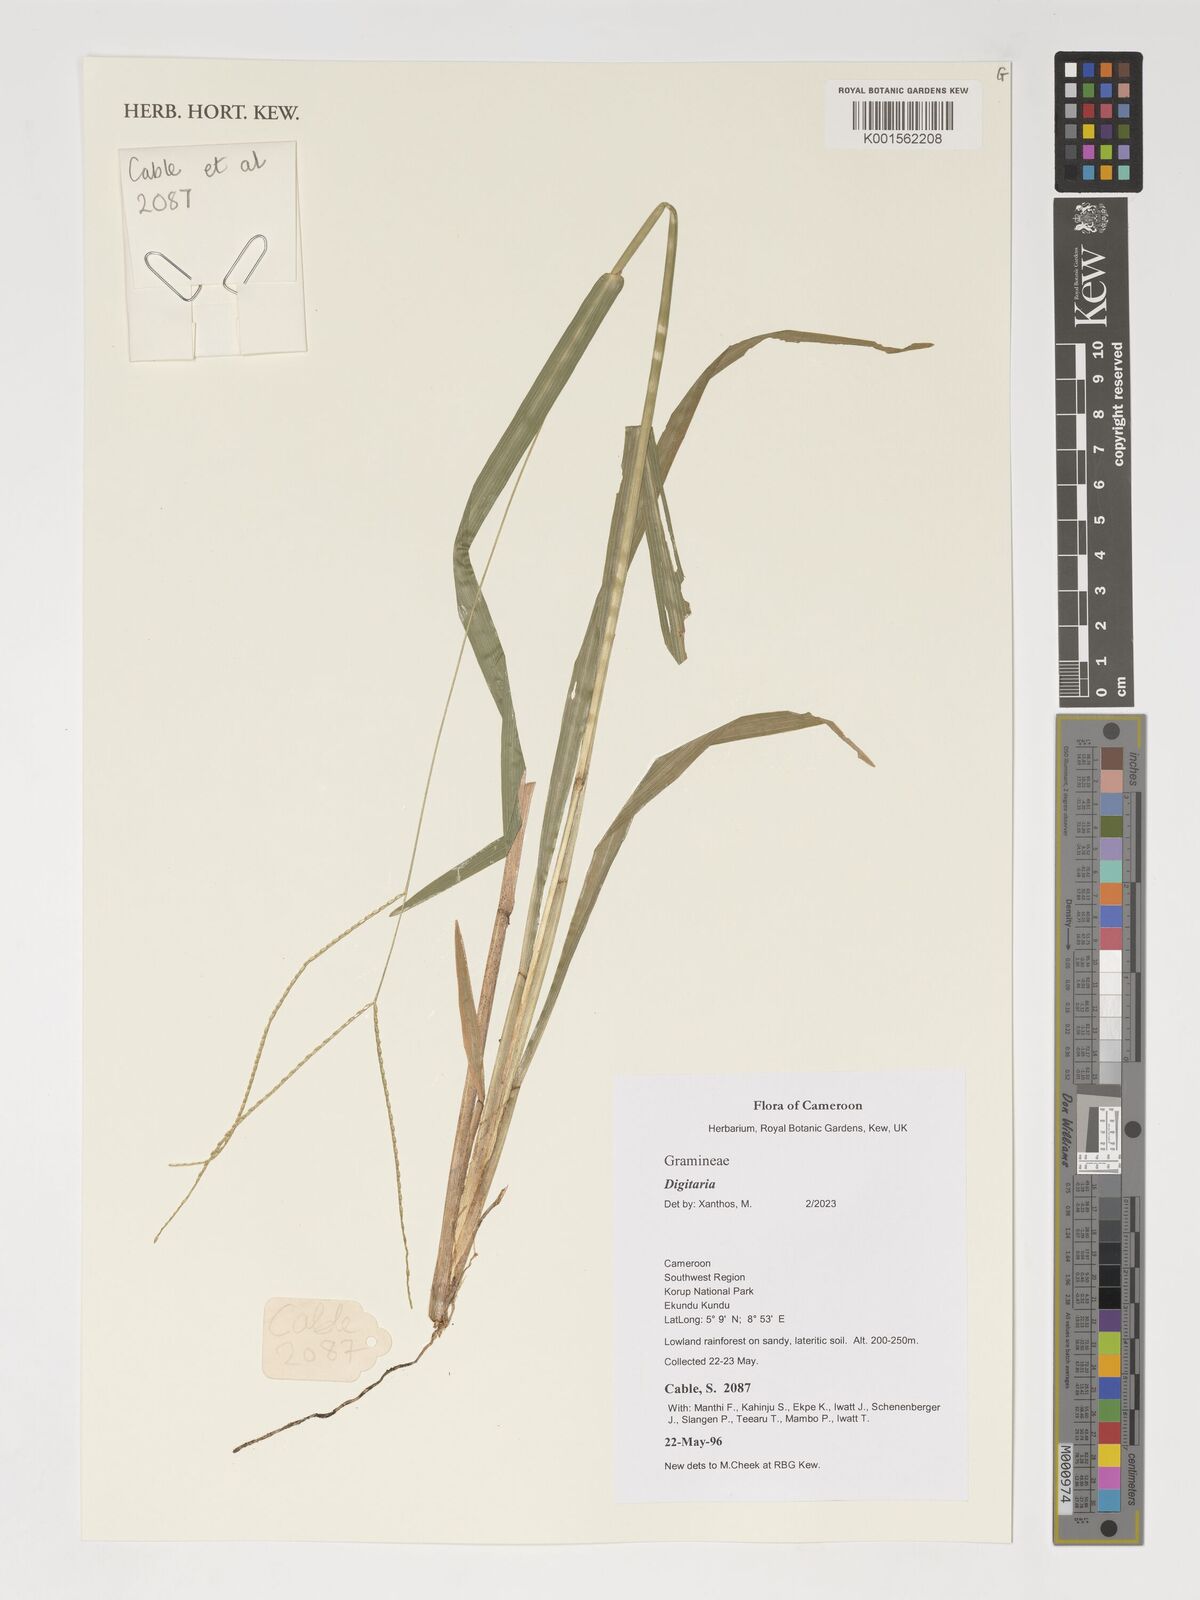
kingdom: Plantae
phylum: Tracheophyta
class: Liliopsida
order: Poales
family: Poaceae
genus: Digitaria
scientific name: Digitaria spec
